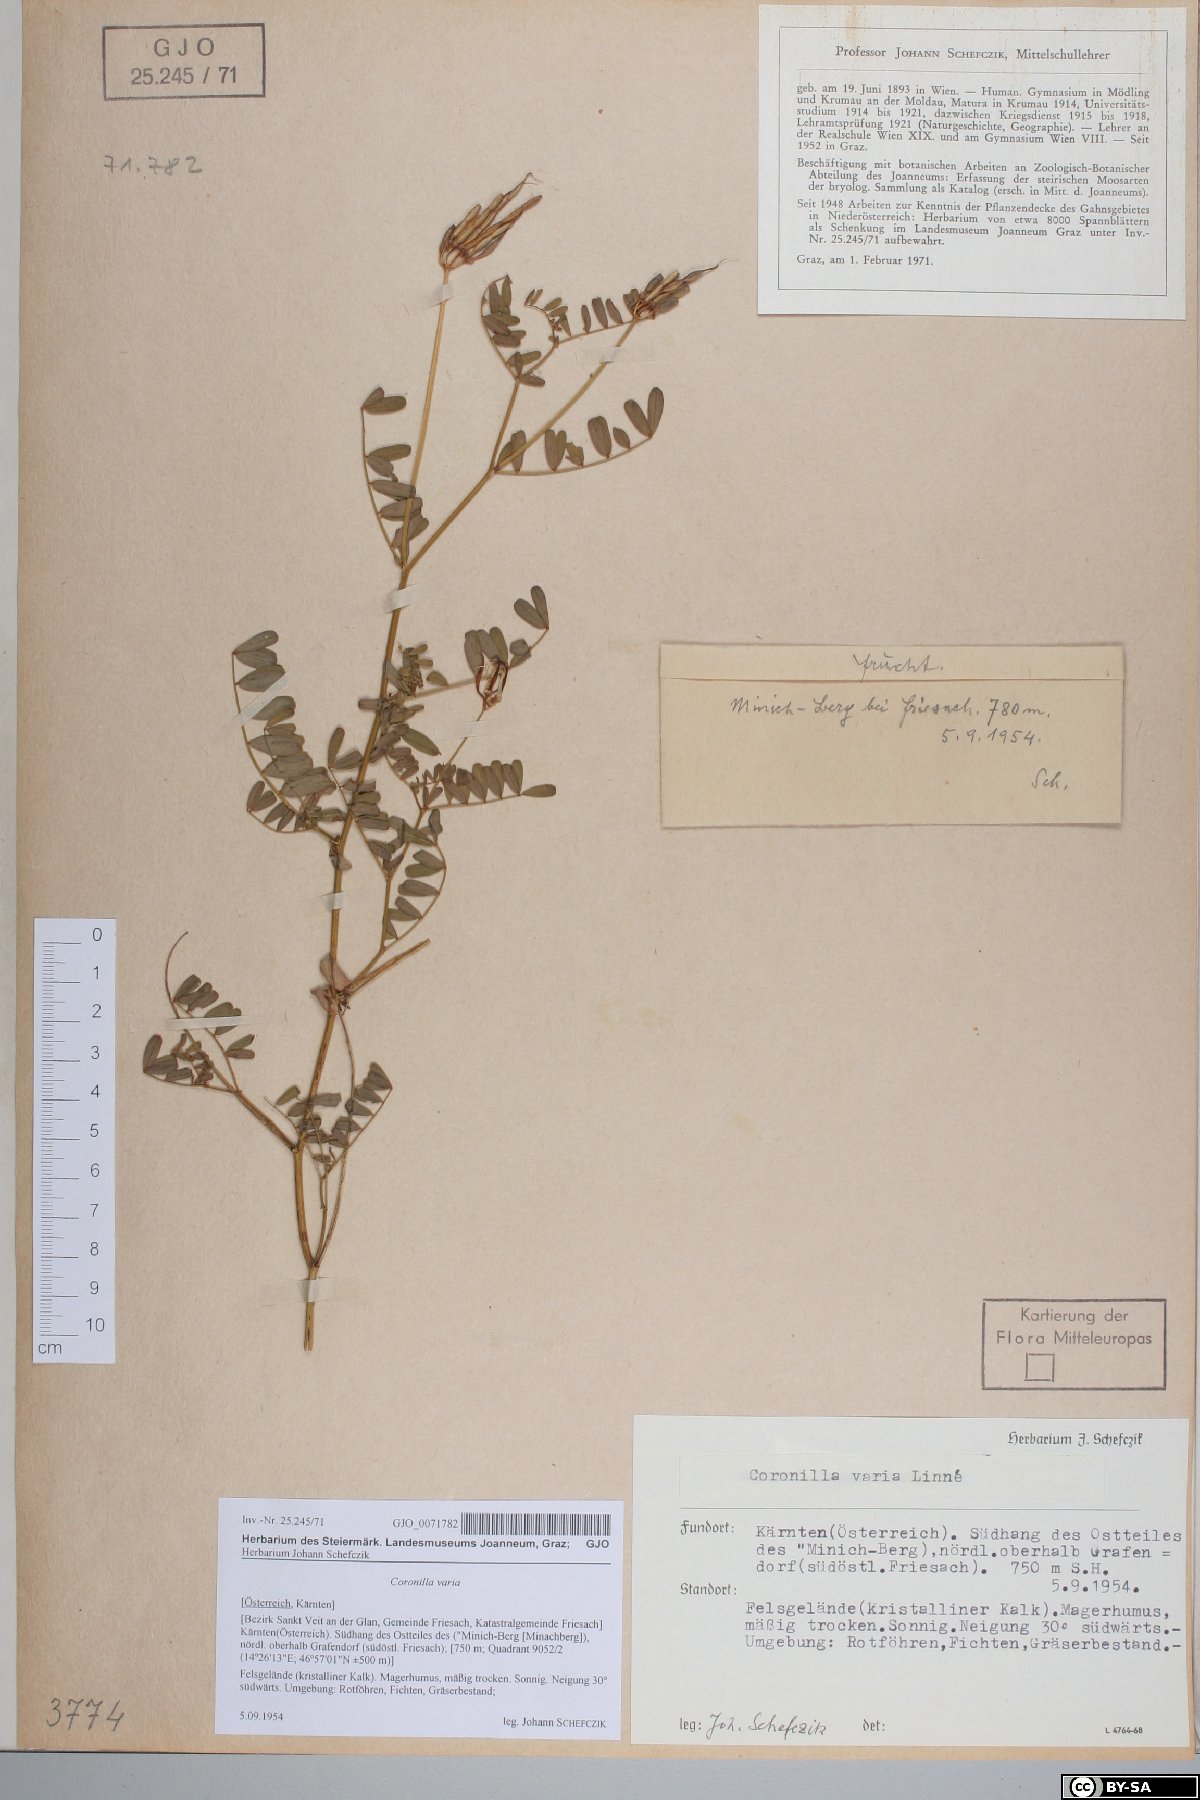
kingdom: Plantae
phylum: Tracheophyta
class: Magnoliopsida
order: Fabales
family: Fabaceae
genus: Coronilla
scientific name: Coronilla varia
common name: Crownvetch
